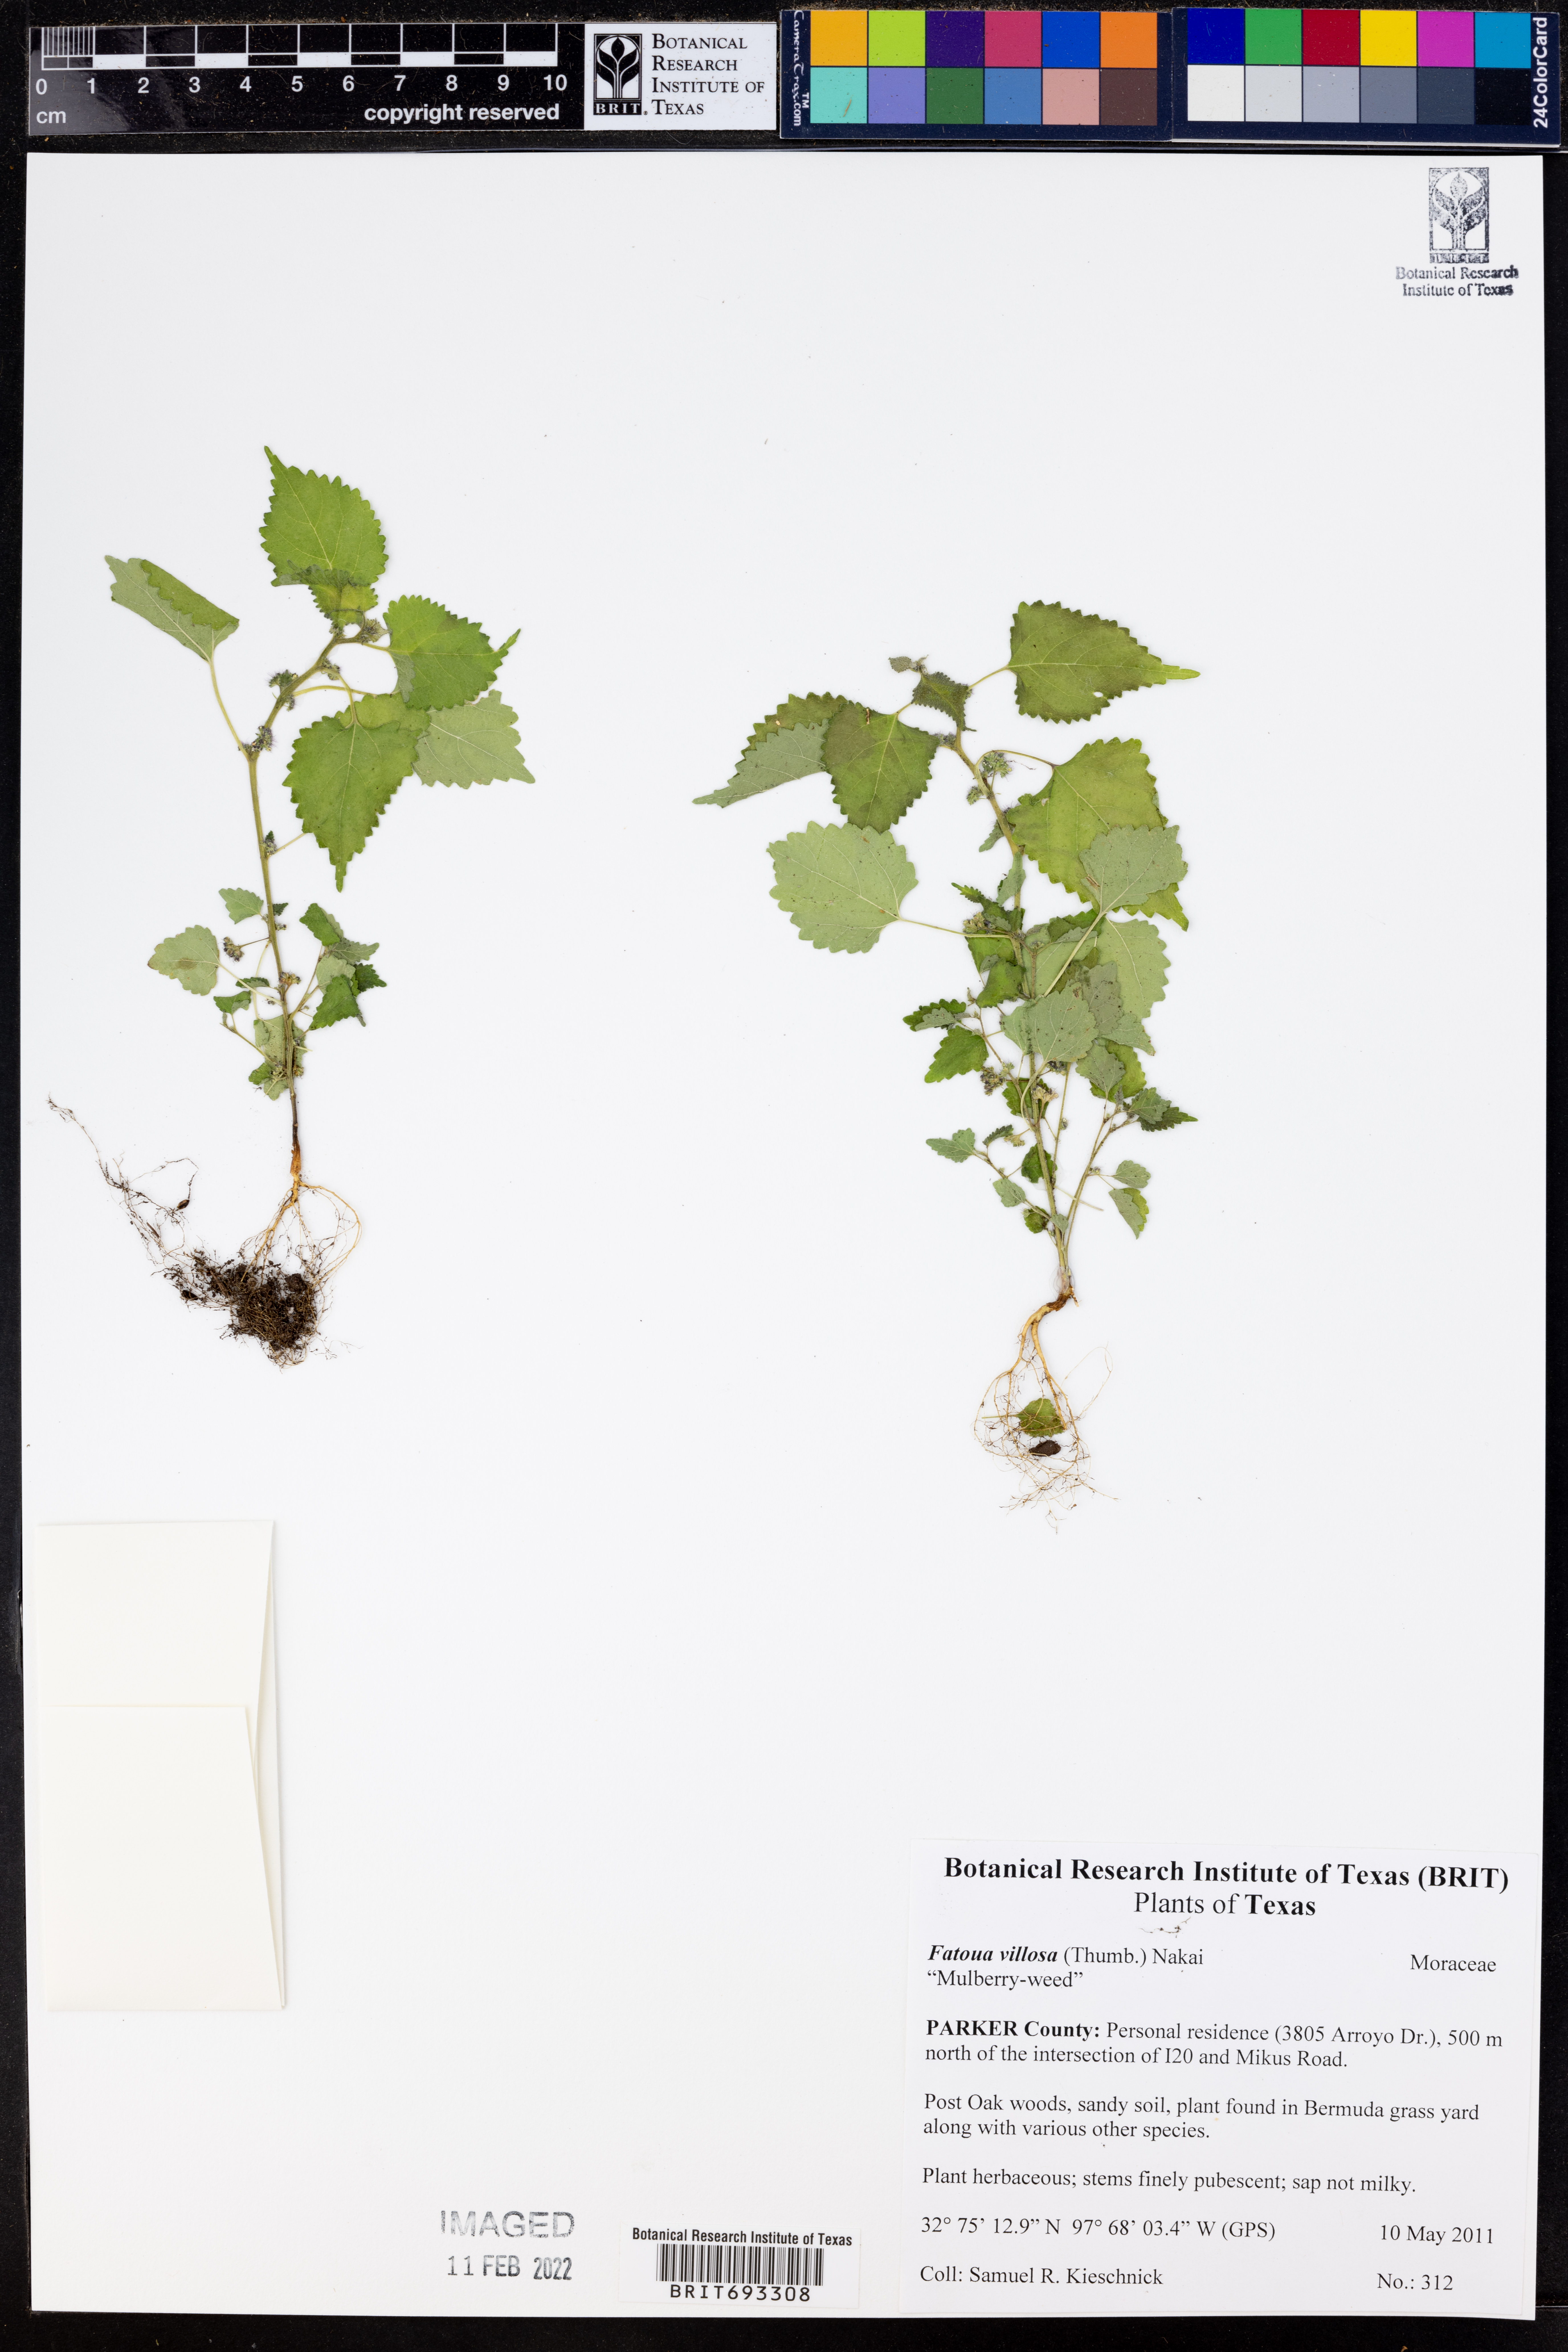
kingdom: Plantae
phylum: Tracheophyta
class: Magnoliopsida
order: Rosales
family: Moraceae
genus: Fatoua
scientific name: Fatoua villosa
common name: Hairy crabweed
